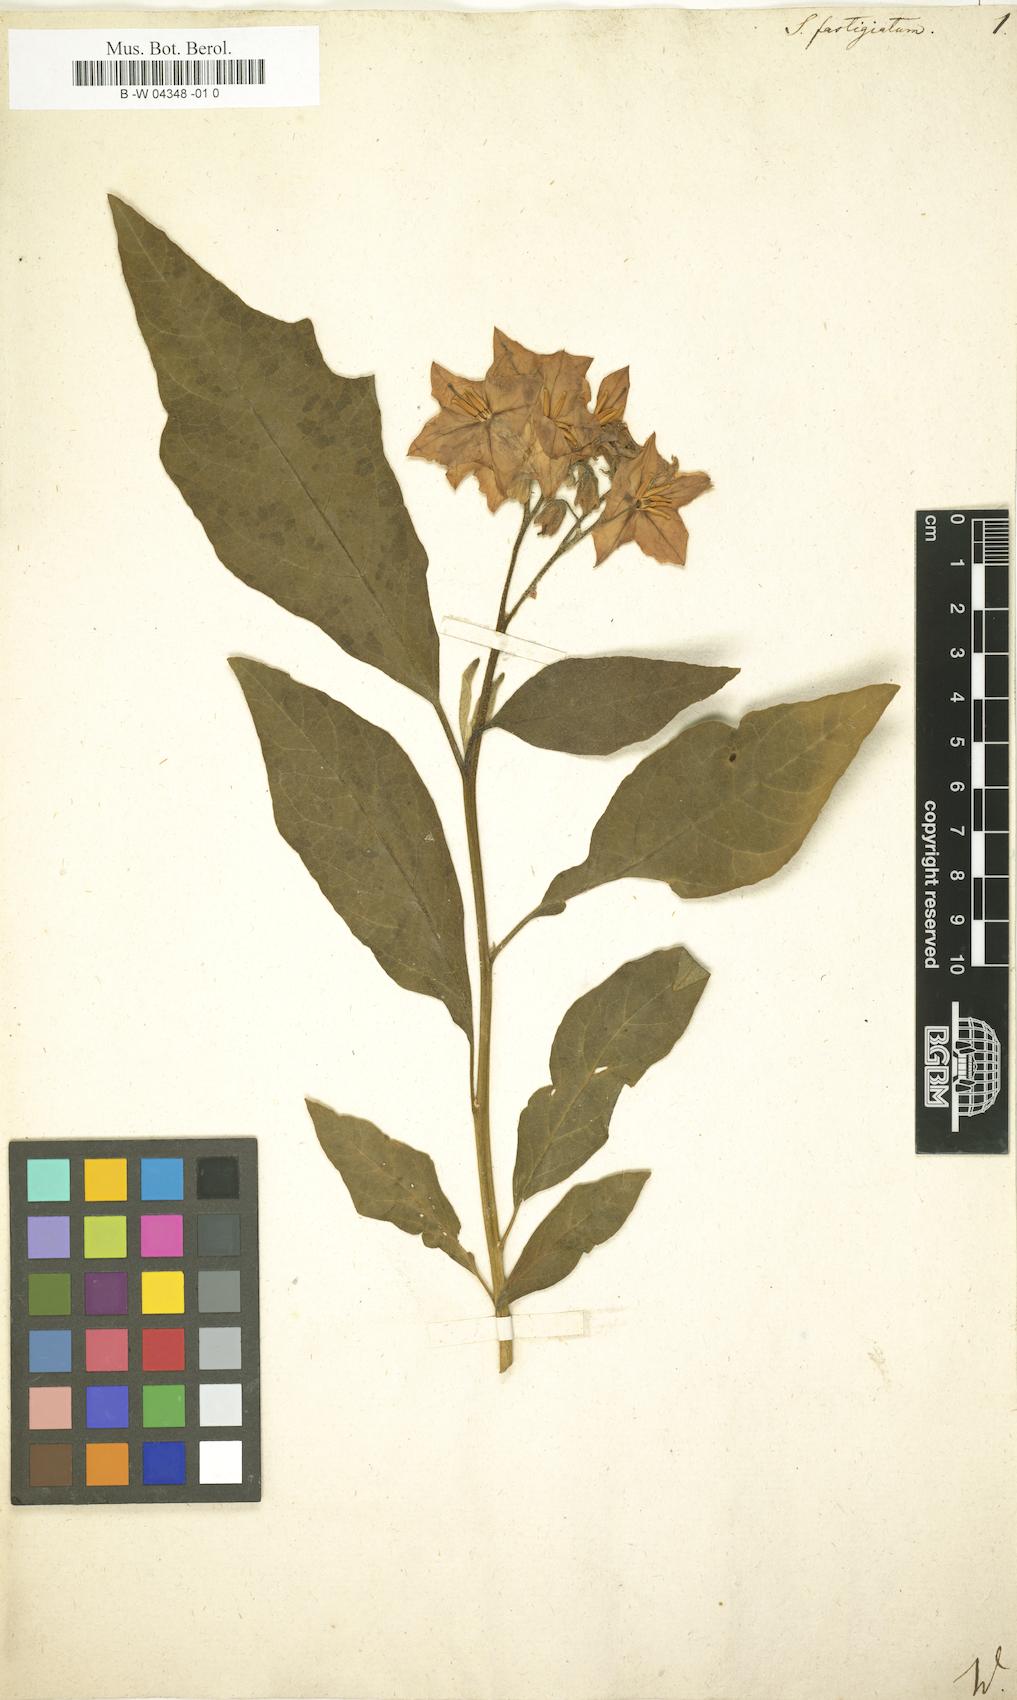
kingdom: Plantae
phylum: Tracheophyta
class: Magnoliopsida
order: Solanales
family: Solanaceae
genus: Solanum
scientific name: Solanum bonariense
